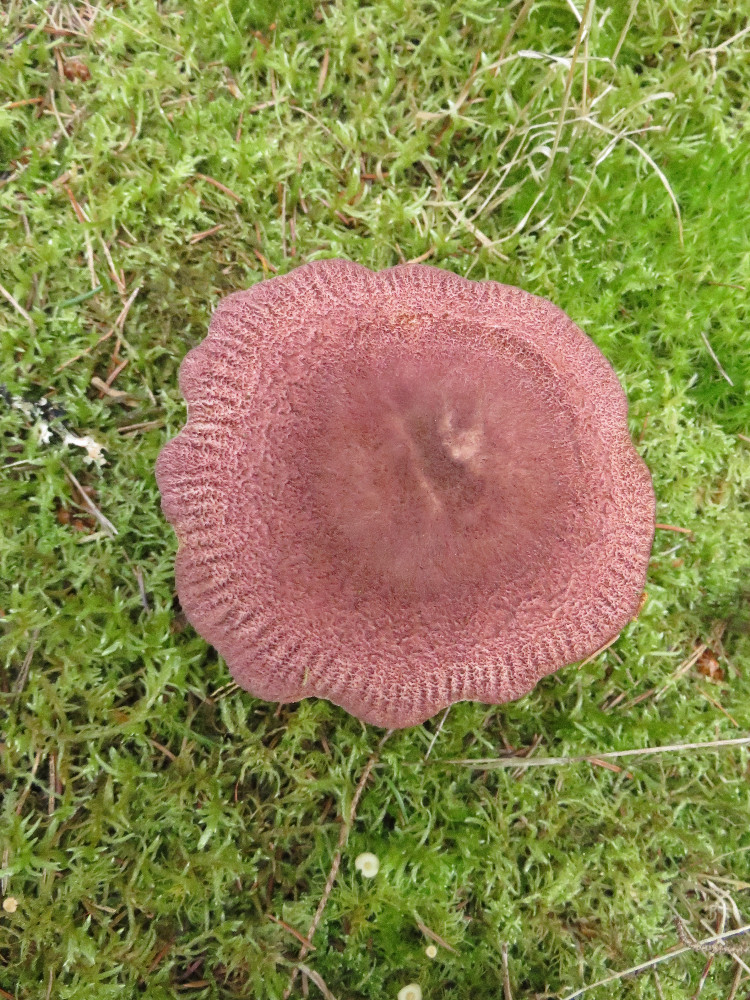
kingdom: Fungi
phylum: Basidiomycota
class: Agaricomycetes
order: Agaricales
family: Tricholomataceae
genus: Tricholomopsis
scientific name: Tricholomopsis rutilans
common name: purpur-væbnerhat
